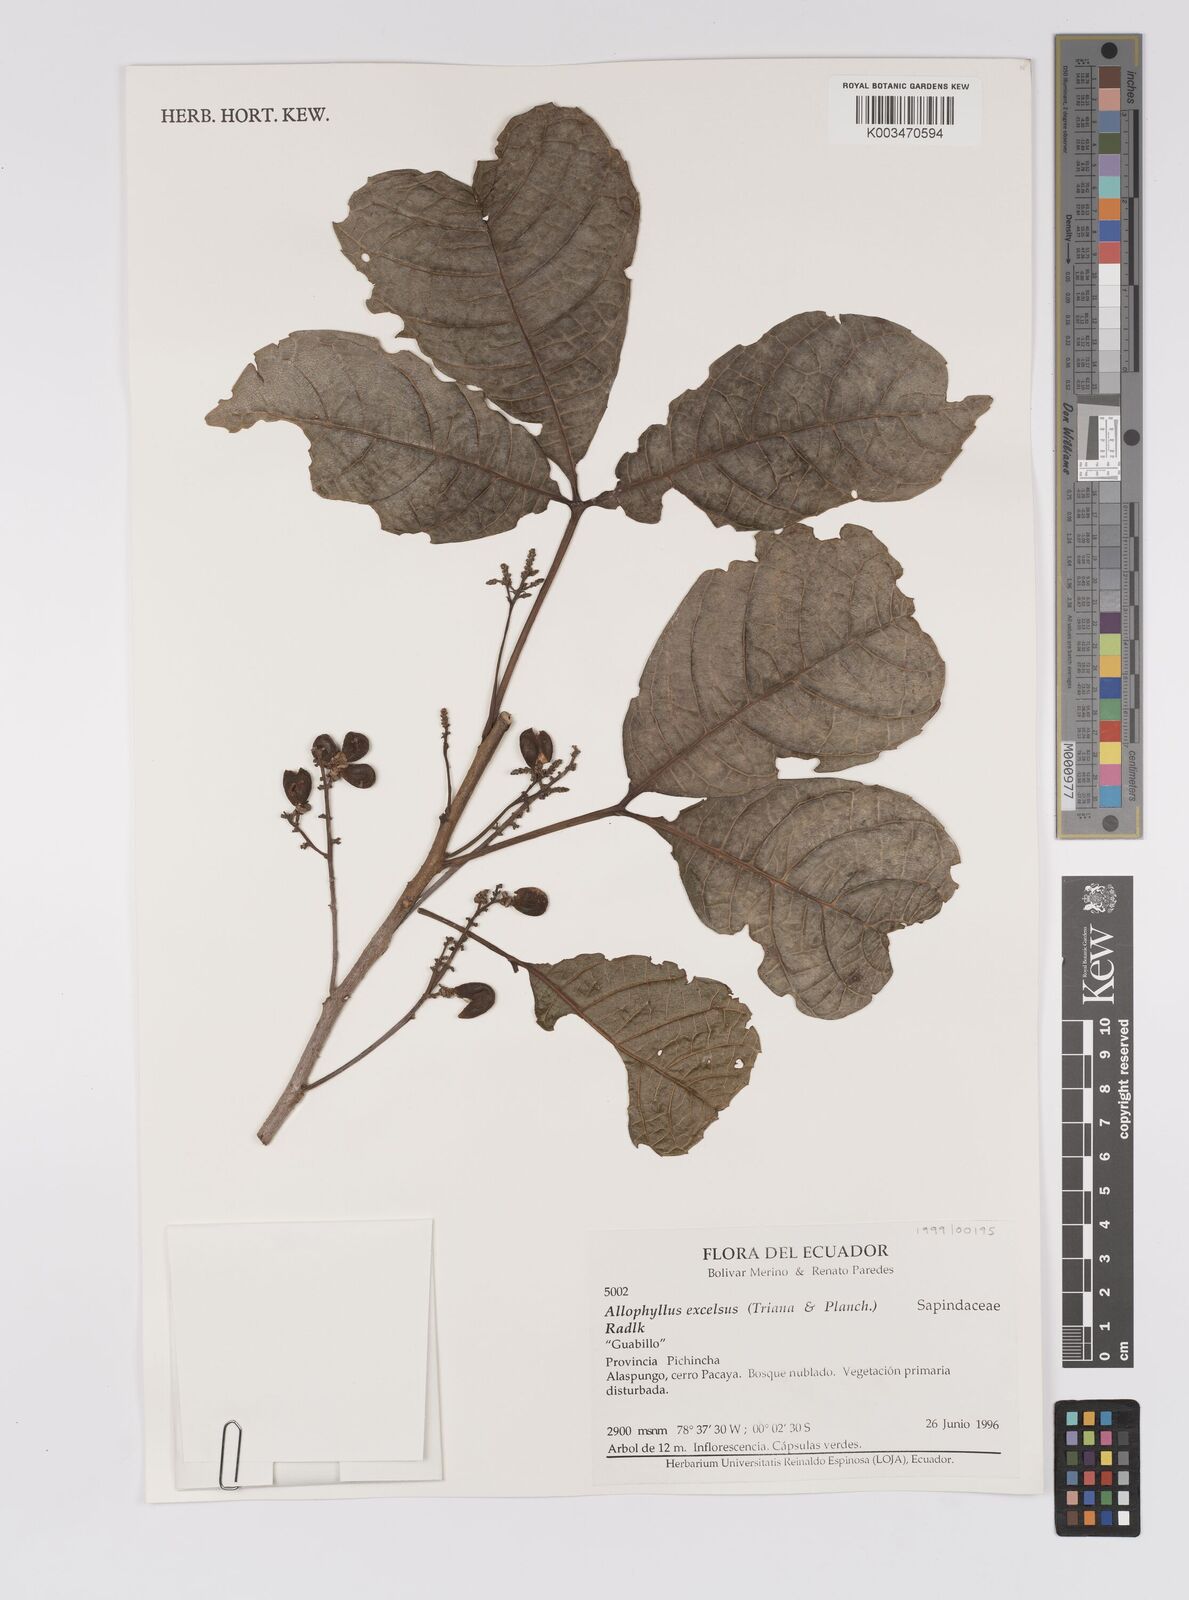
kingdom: Plantae
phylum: Tracheophyta
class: Magnoliopsida
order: Sapindales
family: Sapindaceae
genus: Allophylus
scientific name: Allophylus excelsus
